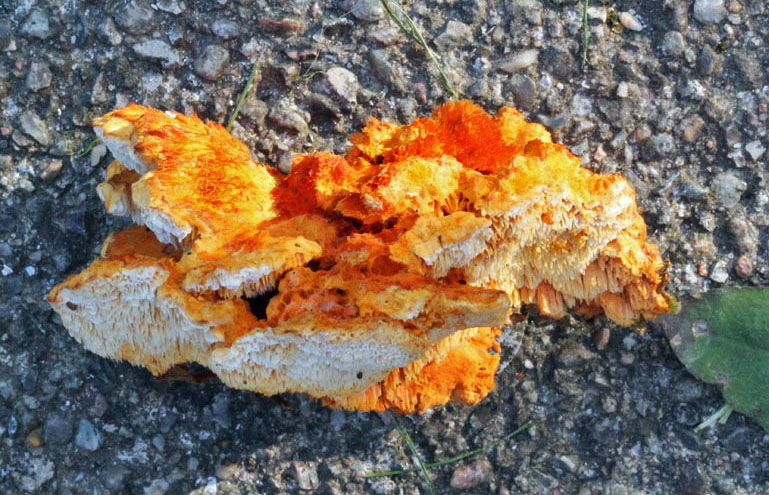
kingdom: Fungi
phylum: Basidiomycota
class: Agaricomycetes
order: Polyporales
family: Pycnoporellaceae
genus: Pycnoporellus
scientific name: Pycnoporellus fulgens
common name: flammeporesvamp
